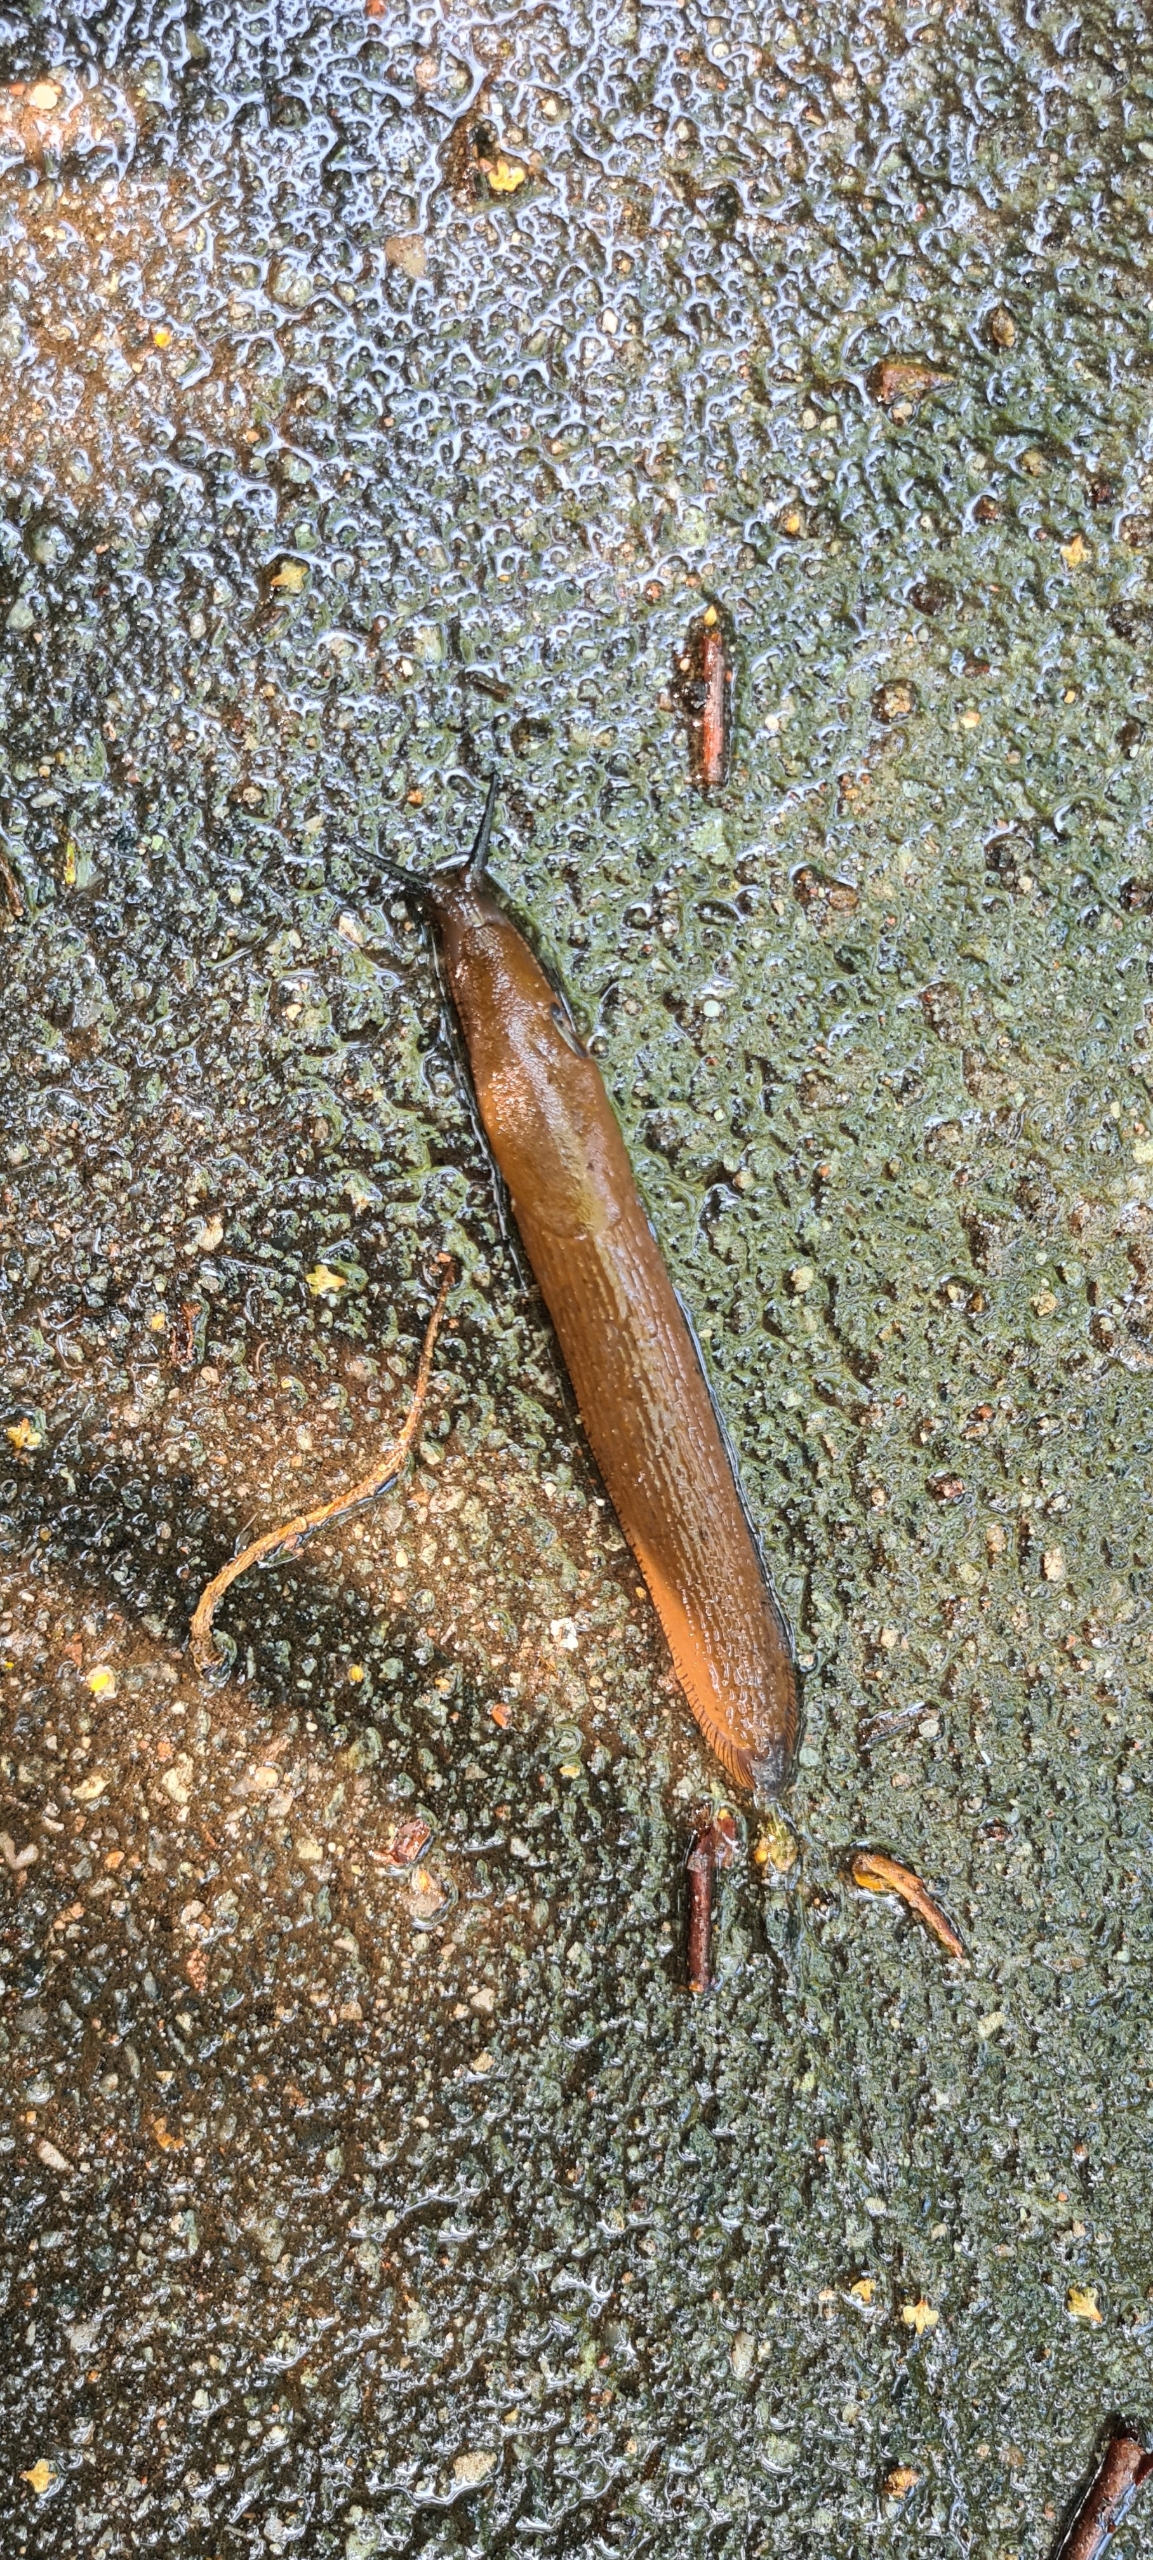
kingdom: Animalia
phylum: Mollusca
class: Gastropoda
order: Stylommatophora
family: Arionidae
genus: Arion
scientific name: Arion vulgaris
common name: Iberisk skovsnegl
